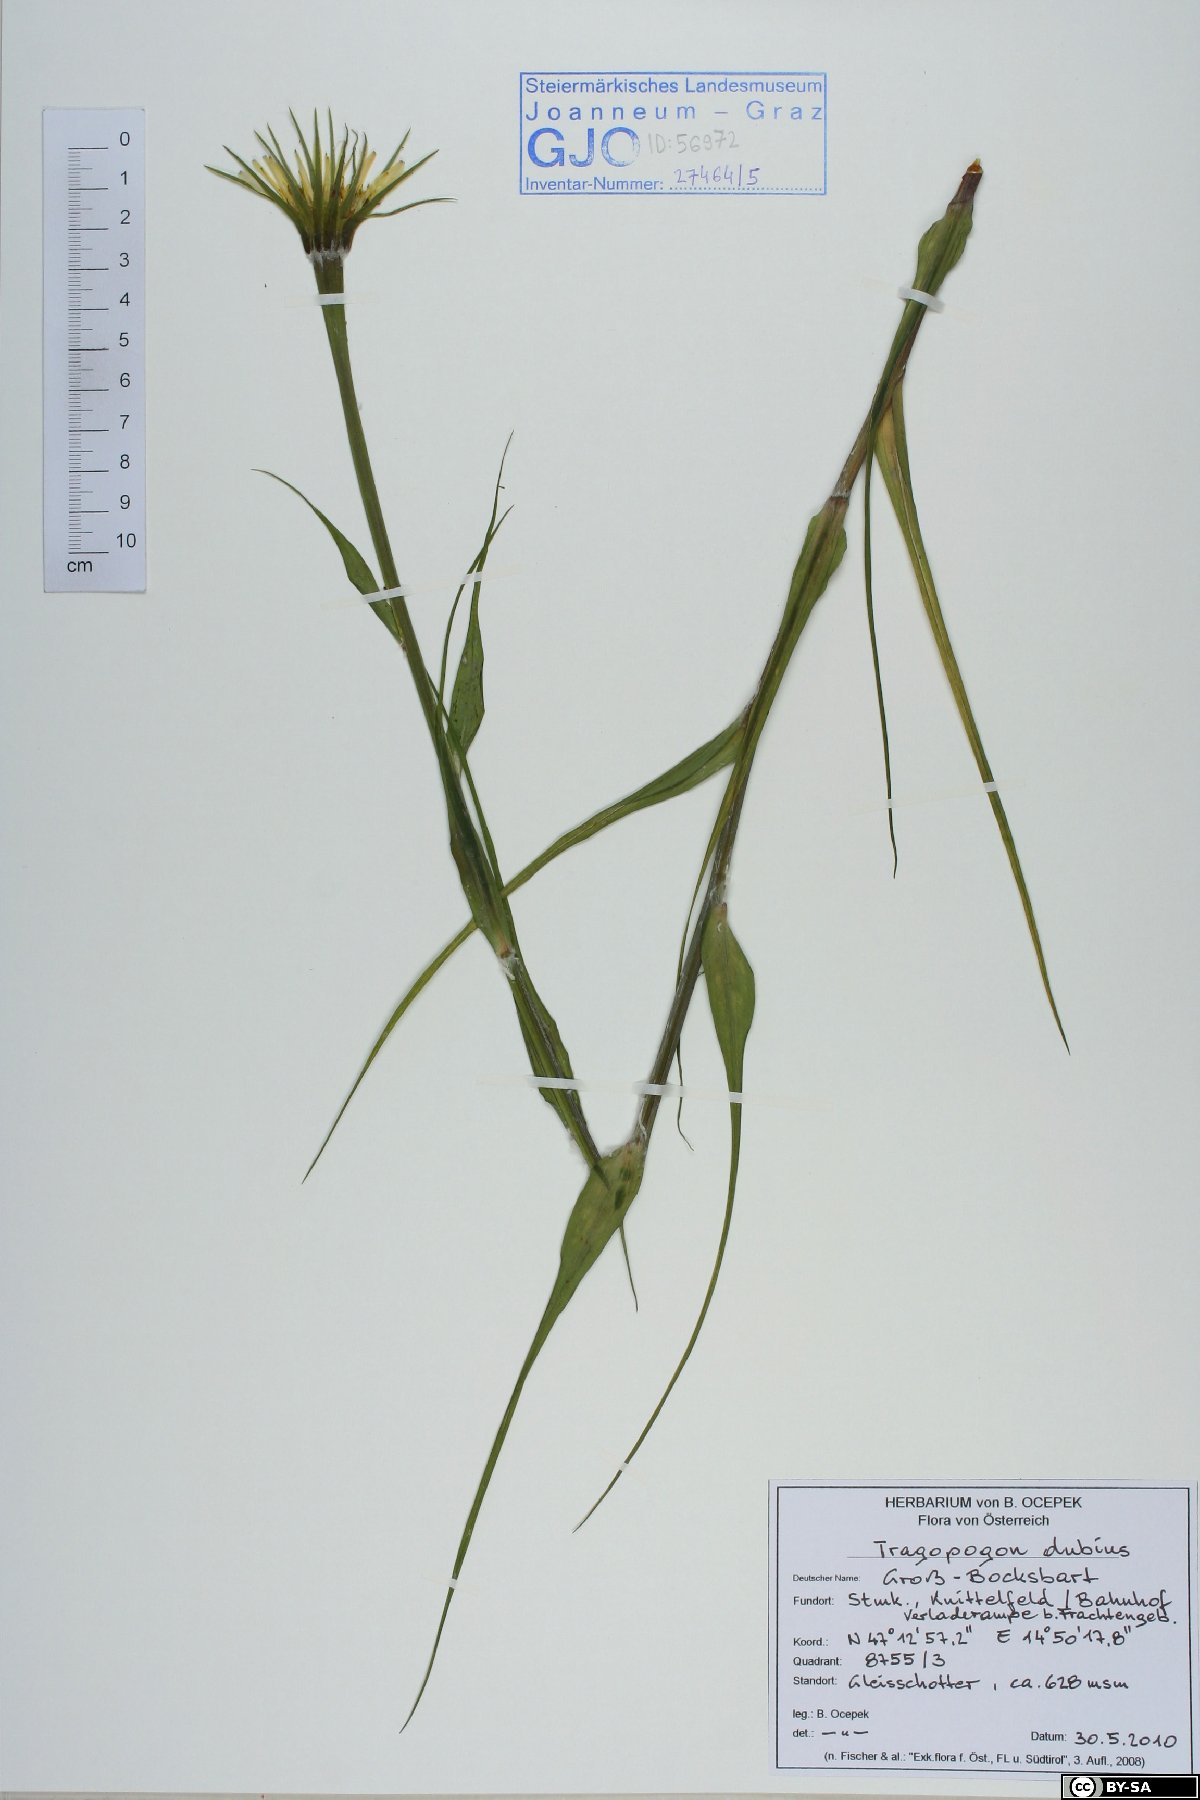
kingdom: Plantae
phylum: Tracheophyta
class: Magnoliopsida
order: Asterales
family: Asteraceae
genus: Tragopogon
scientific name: Tragopogon dubius
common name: Yellow salsify
